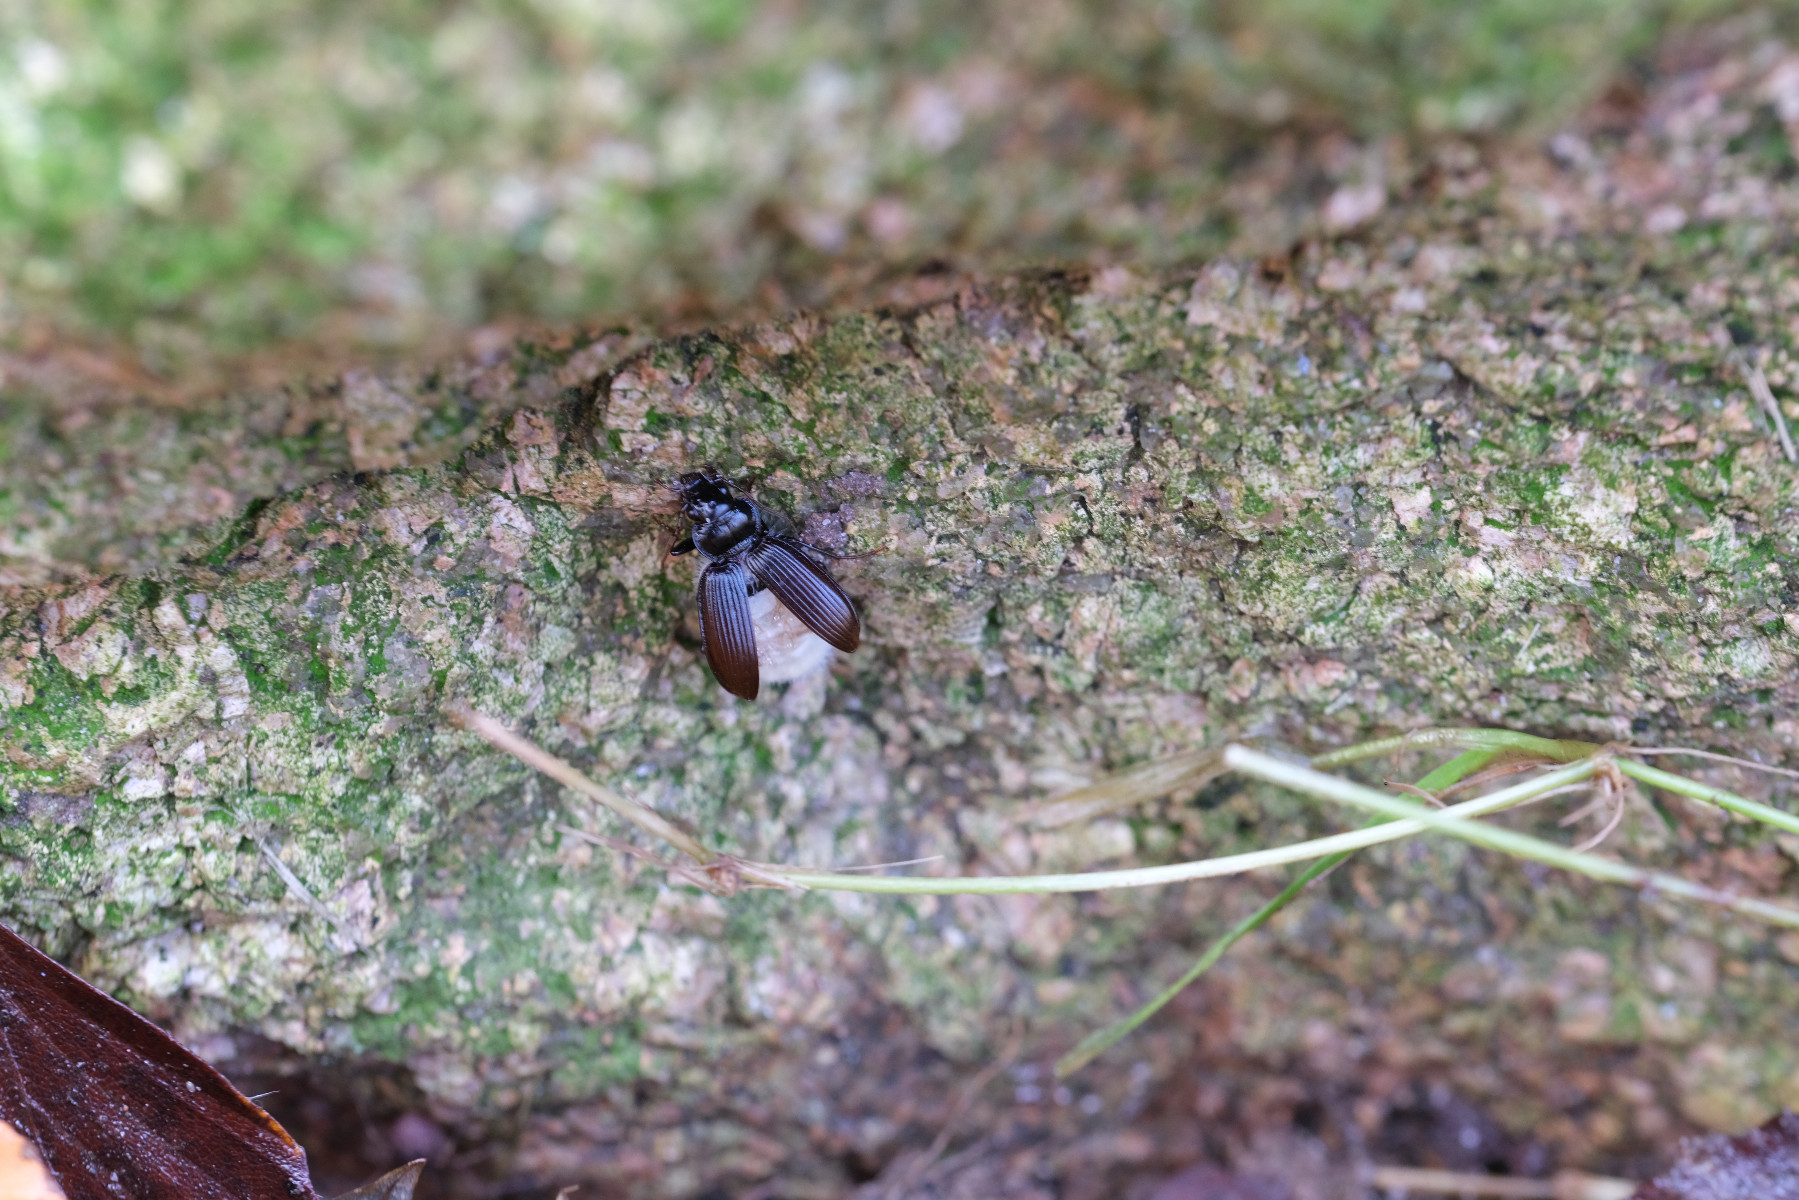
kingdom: Fungi
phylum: Entomophthoromycota
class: Entomophthoromycetes
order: Entomophthorales
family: Entomophthoraceae
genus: Erynia
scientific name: Erynia nebriae
